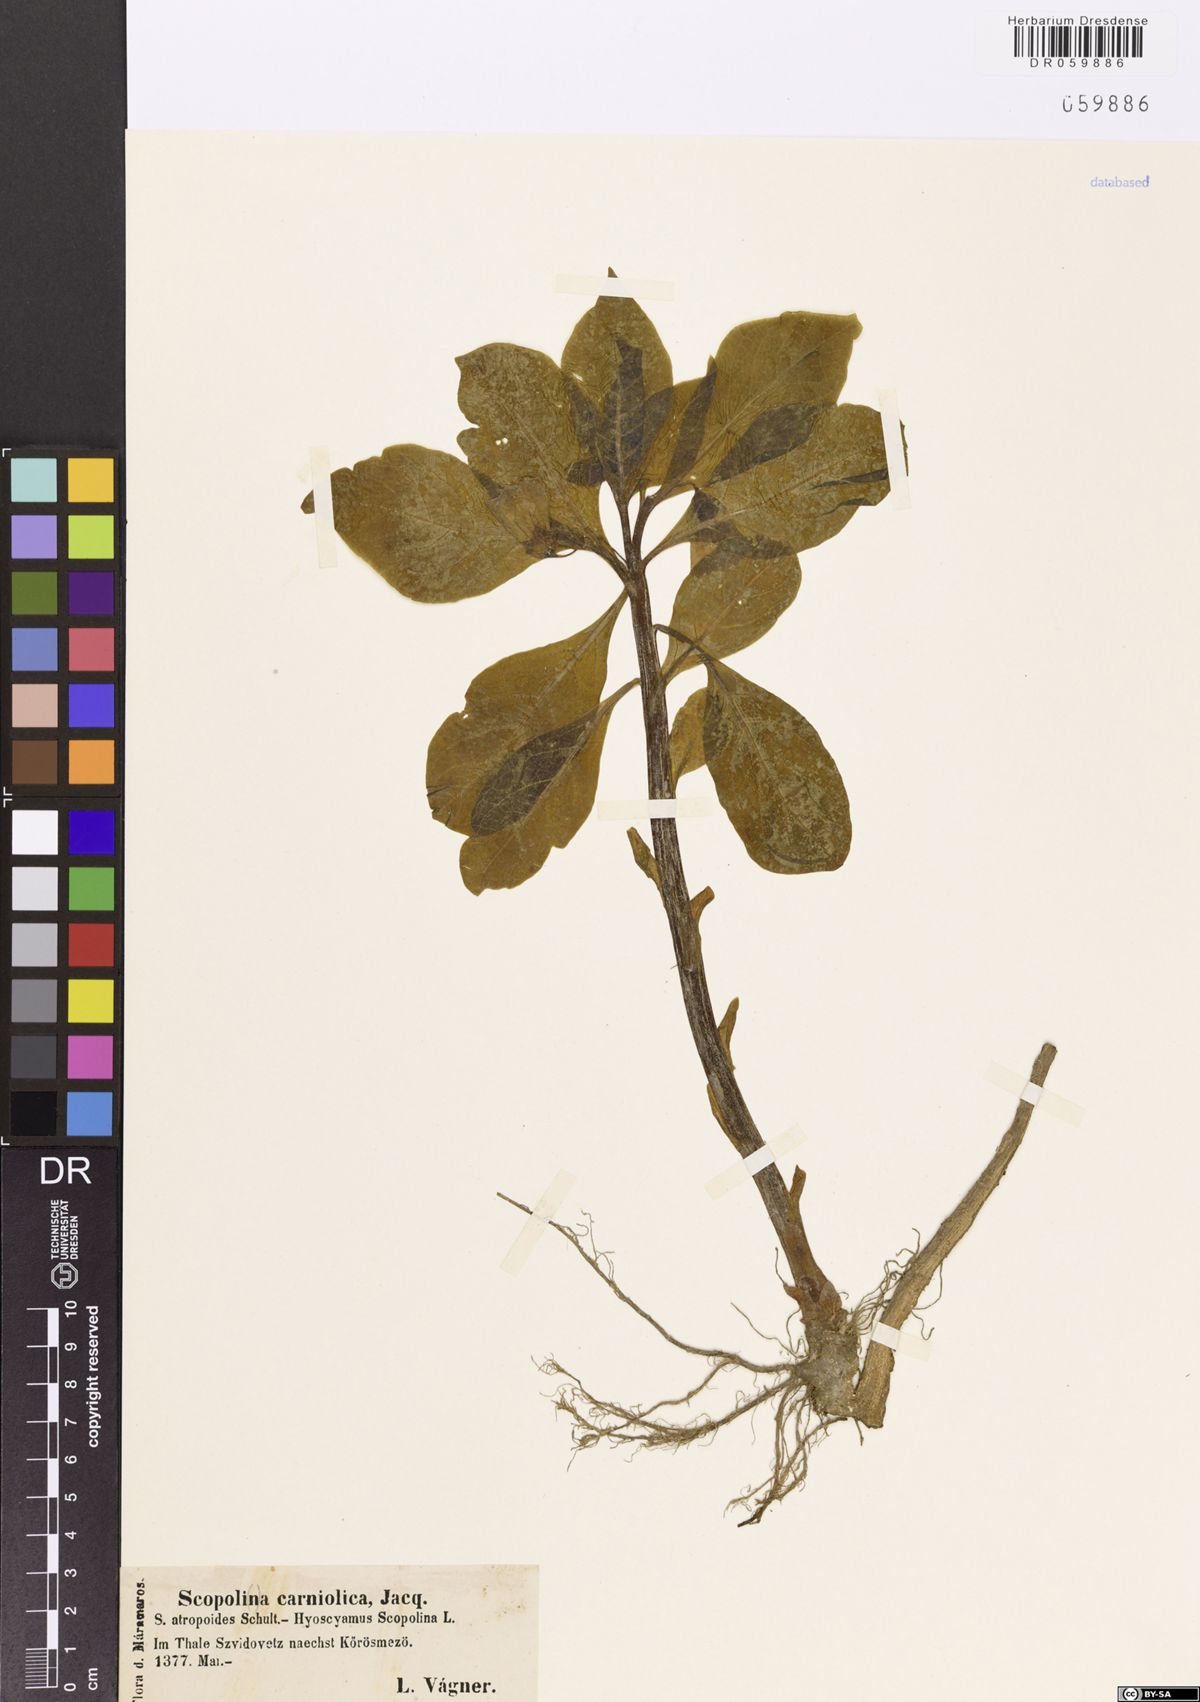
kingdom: Plantae
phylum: Tracheophyta
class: Magnoliopsida
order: Solanales
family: Solanaceae
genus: Scopolia
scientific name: Scopolia carniolica
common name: Scopolia
